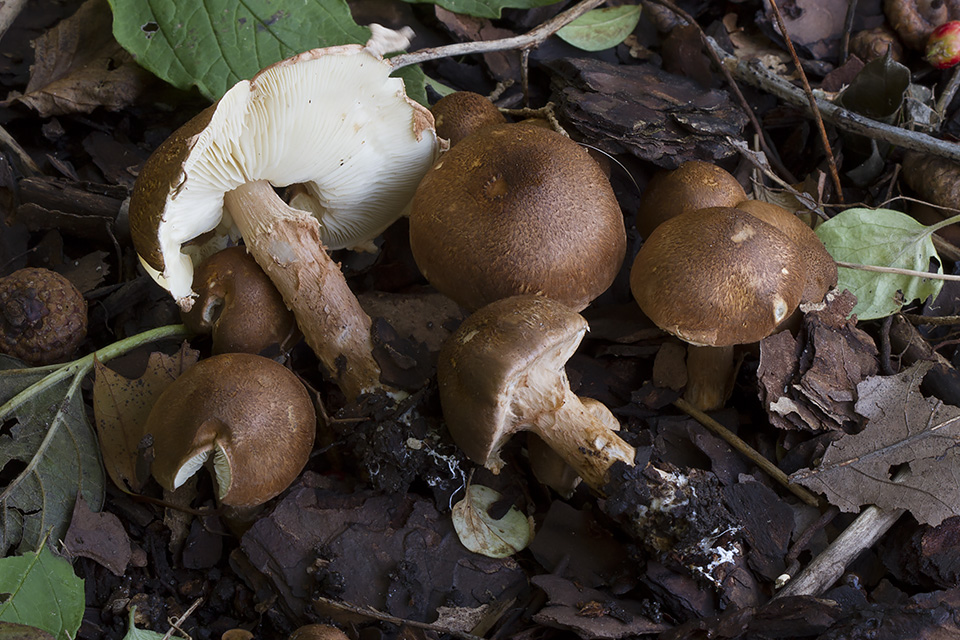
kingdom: Fungi
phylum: Basidiomycota
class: Agaricomycetes
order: Agaricales
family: Agaricaceae
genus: Leucocoprinus
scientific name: Leucocoprinus straminellus
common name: rustbrun parasolhat
